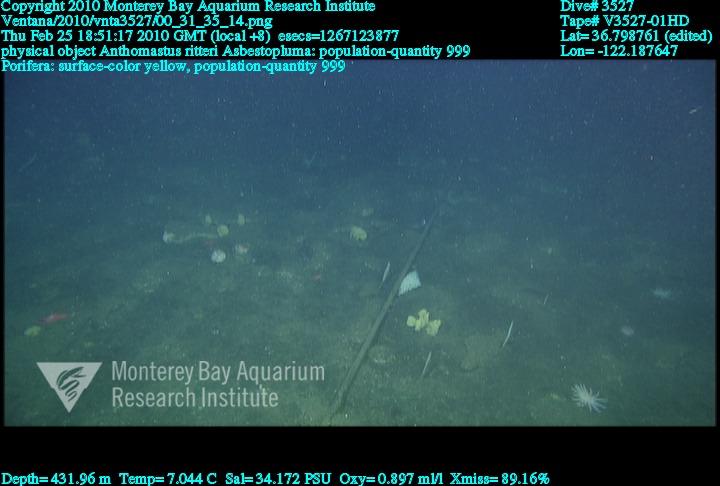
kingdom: Animalia
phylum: Porifera
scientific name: Porifera
